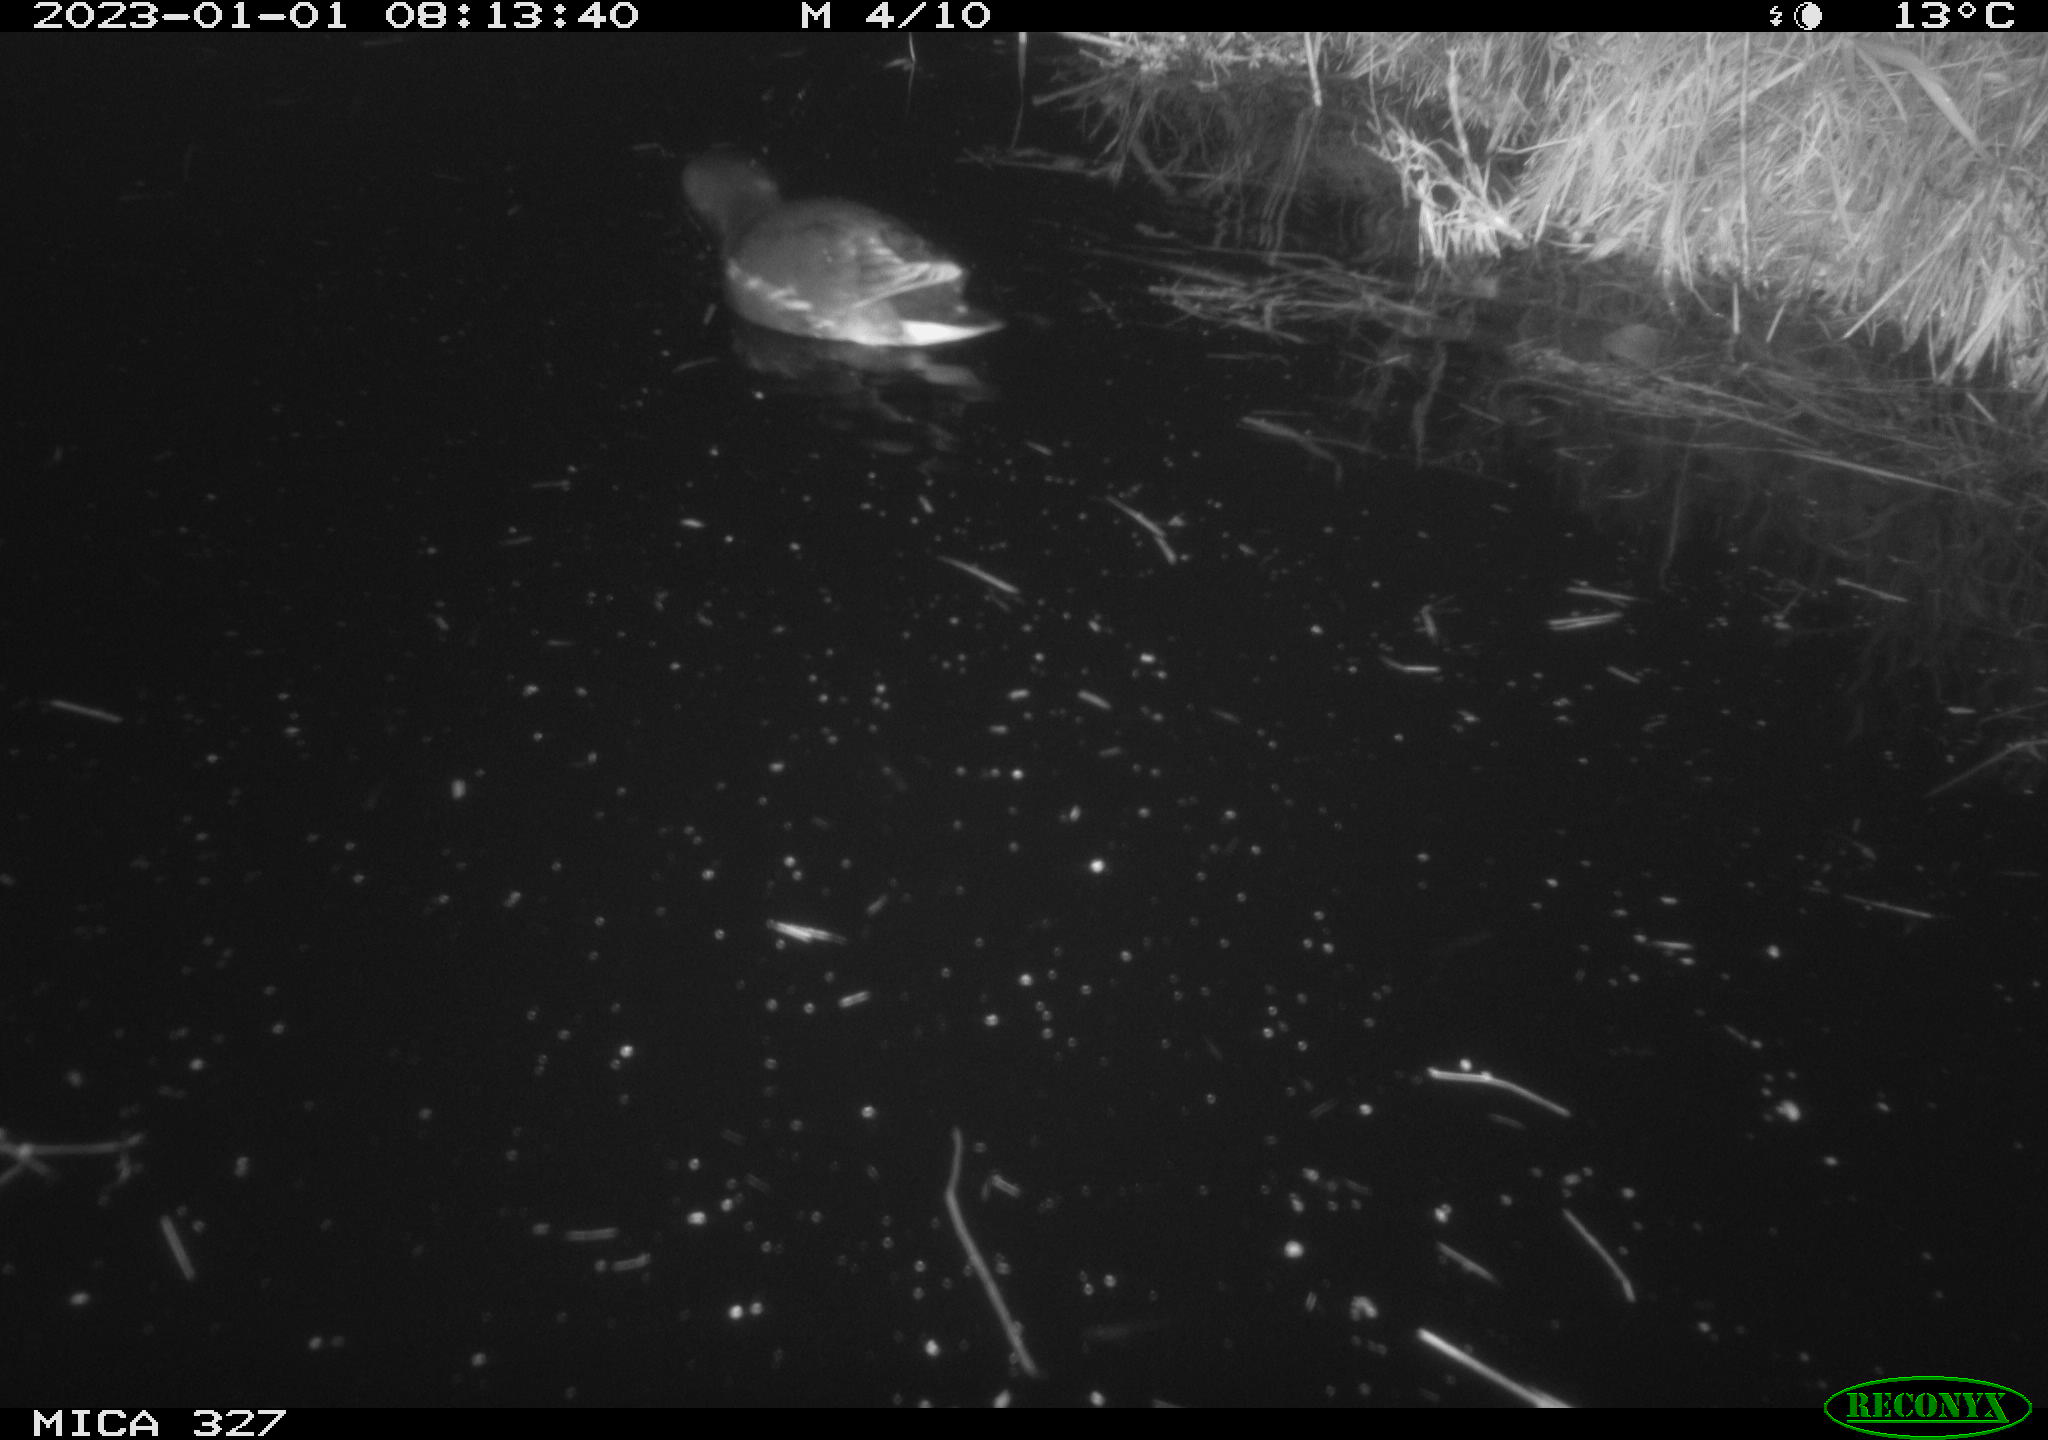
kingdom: Animalia
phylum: Chordata
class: Aves
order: Gruiformes
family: Rallidae
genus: Gallinula
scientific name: Gallinula chloropus
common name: Common moorhen
